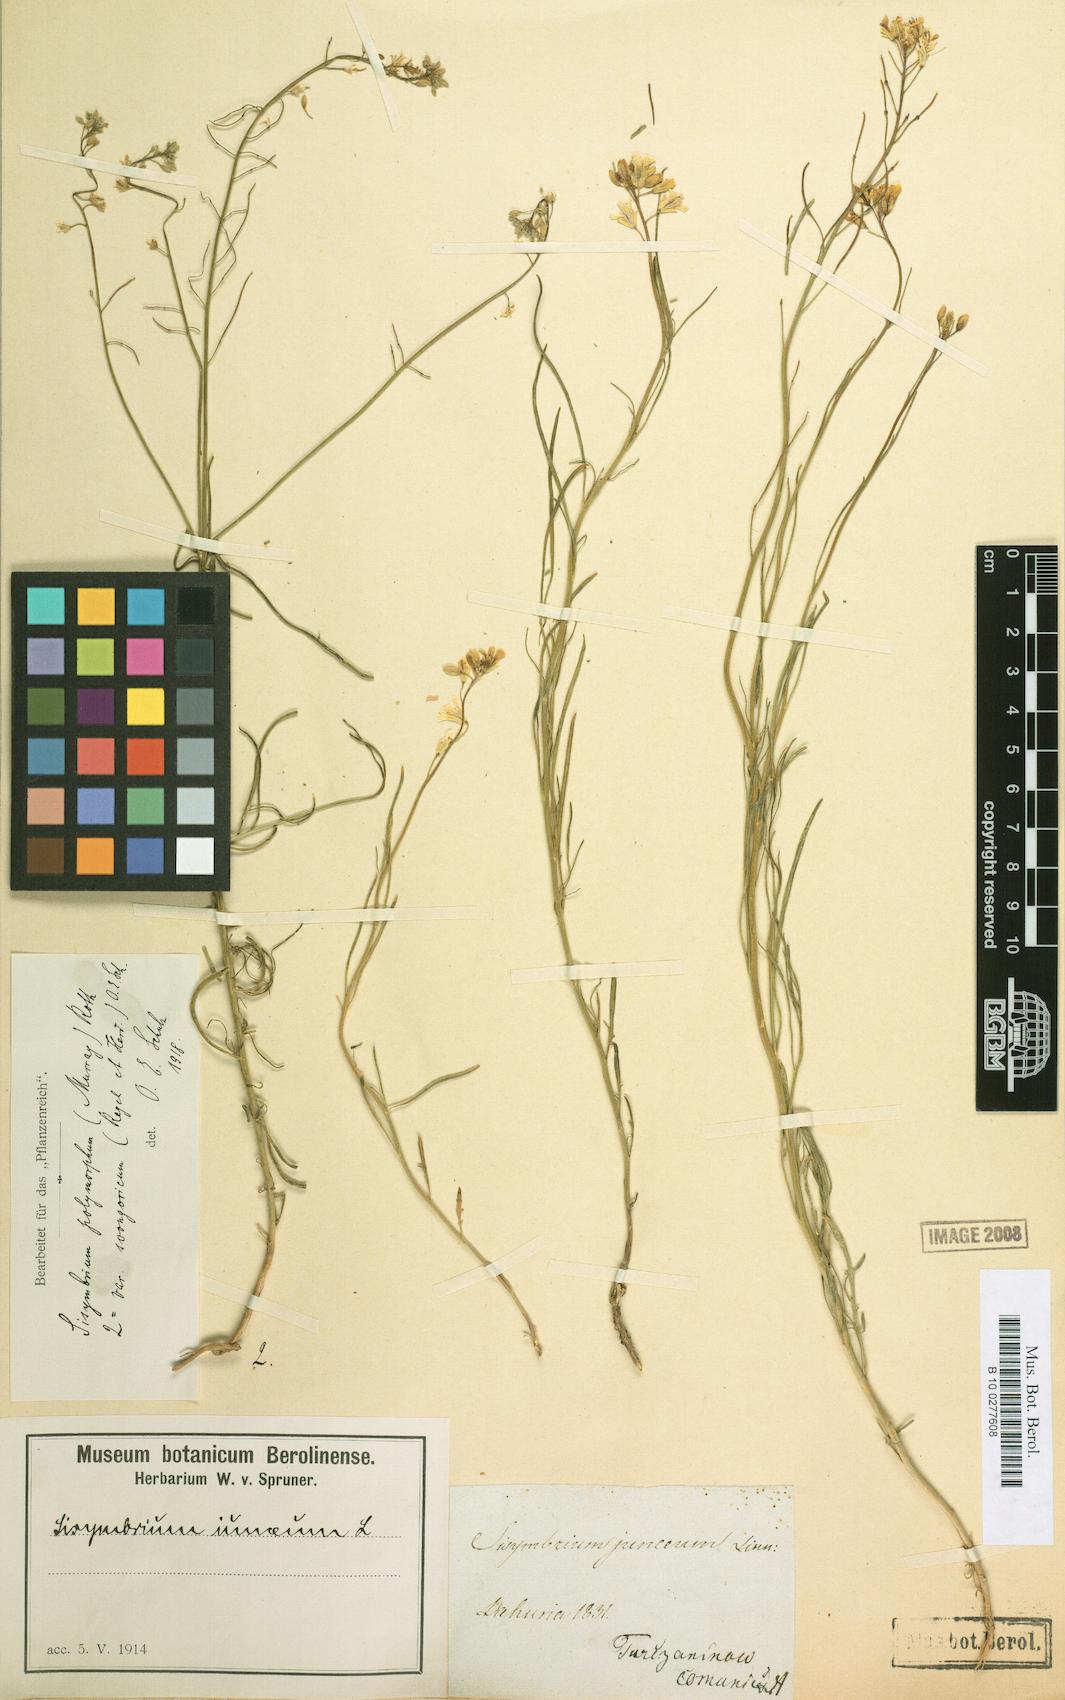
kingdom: Plantae
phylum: Tracheophyta
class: Magnoliopsida
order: Brassicales
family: Brassicaceae
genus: Sisymbrium
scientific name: Sisymbrium polymorphum
